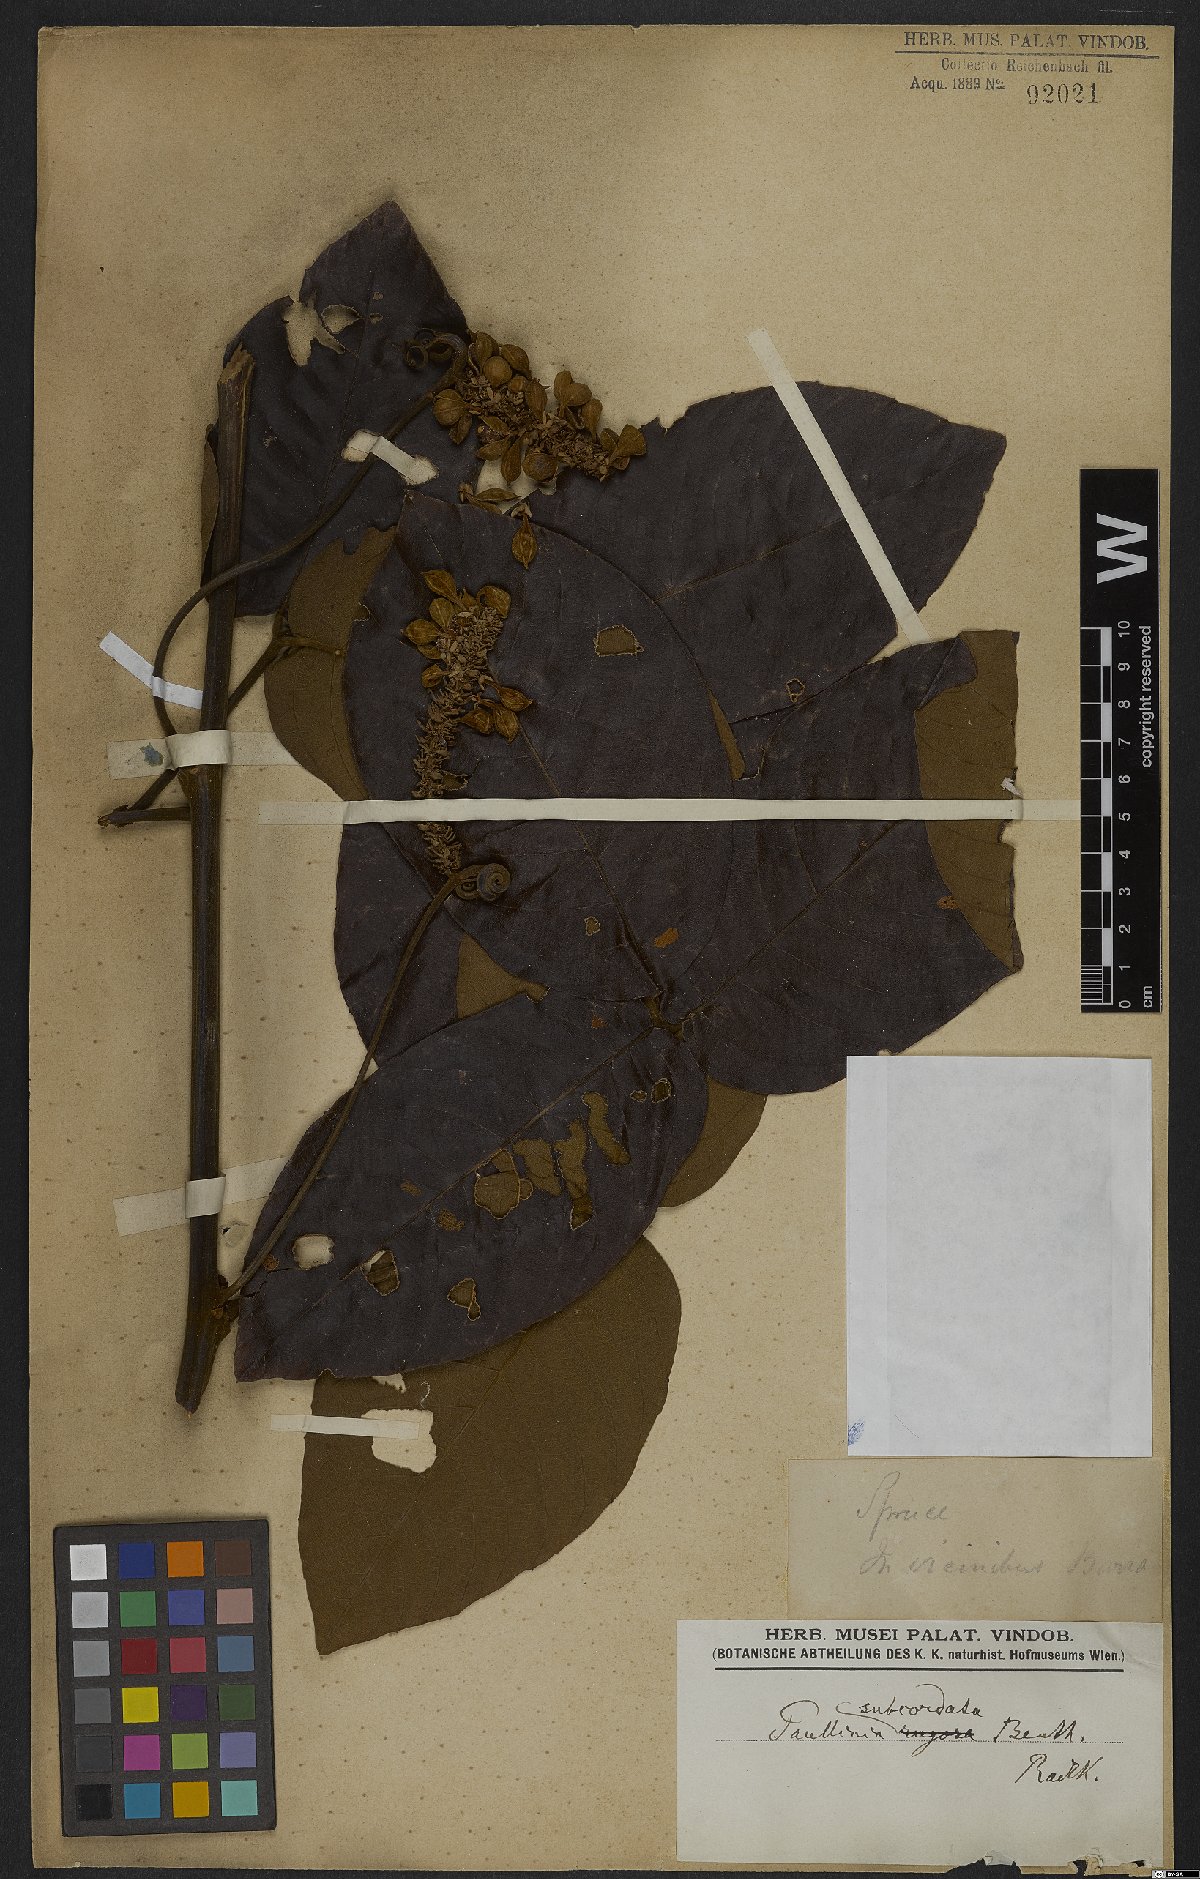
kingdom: Plantae
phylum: Tracheophyta
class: Magnoliopsida
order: Sapindales
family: Sapindaceae
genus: Paullinia
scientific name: Paullinia rugosa
